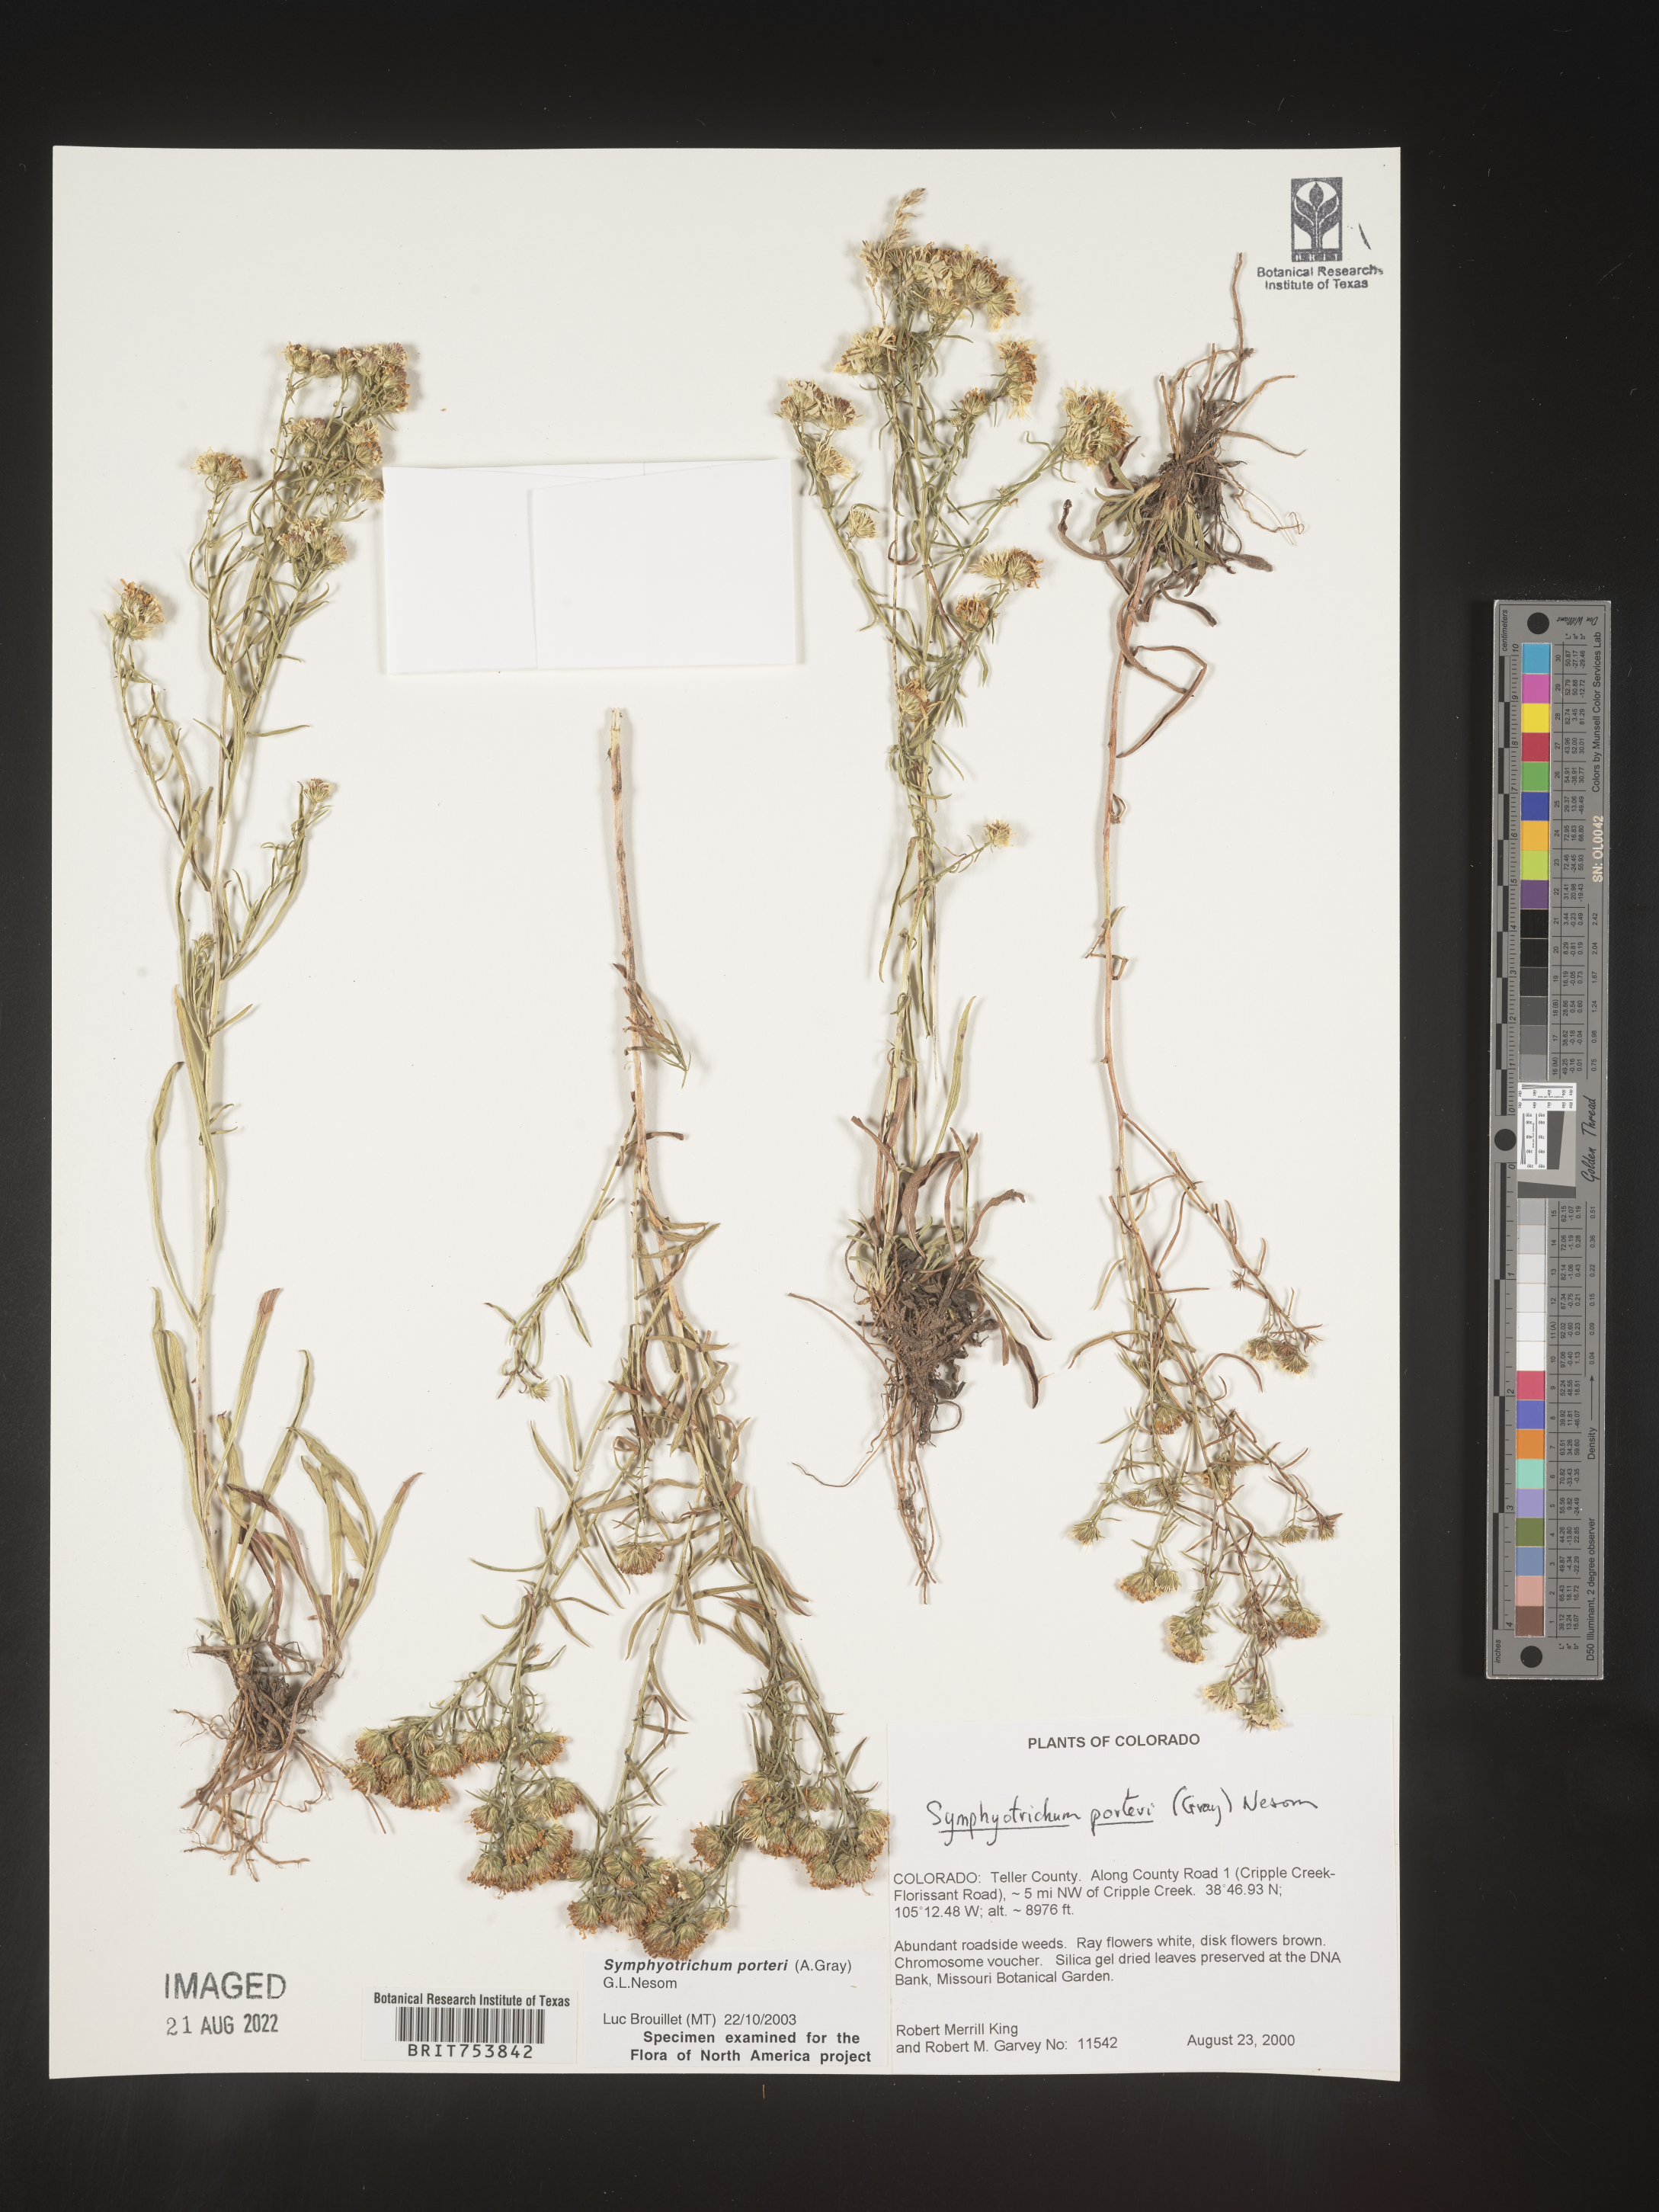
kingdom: Plantae
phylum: Tracheophyta
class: Magnoliopsida
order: Asterales
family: Asteraceae
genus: Symphyotrichum
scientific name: Symphyotrichum porteri
